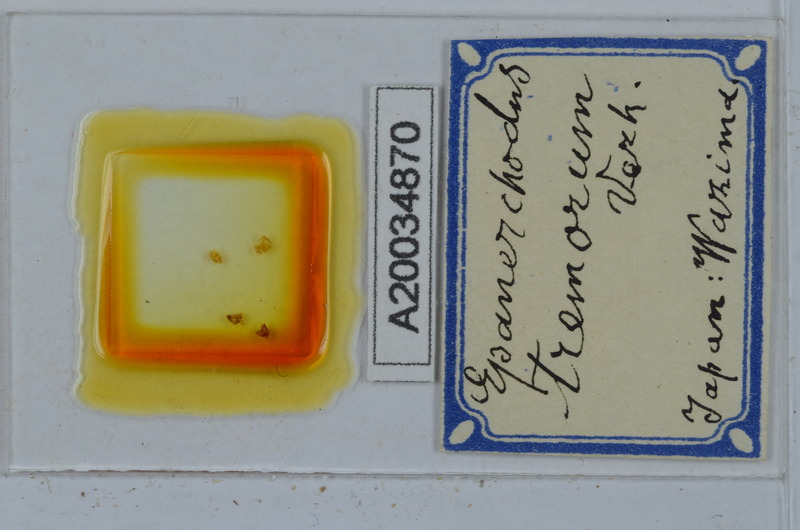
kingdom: Animalia
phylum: Arthropoda
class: Diplopoda
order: Polydesmida
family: Polydesmidae
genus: Epanerchodus
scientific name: Epanerchodus tremorum
